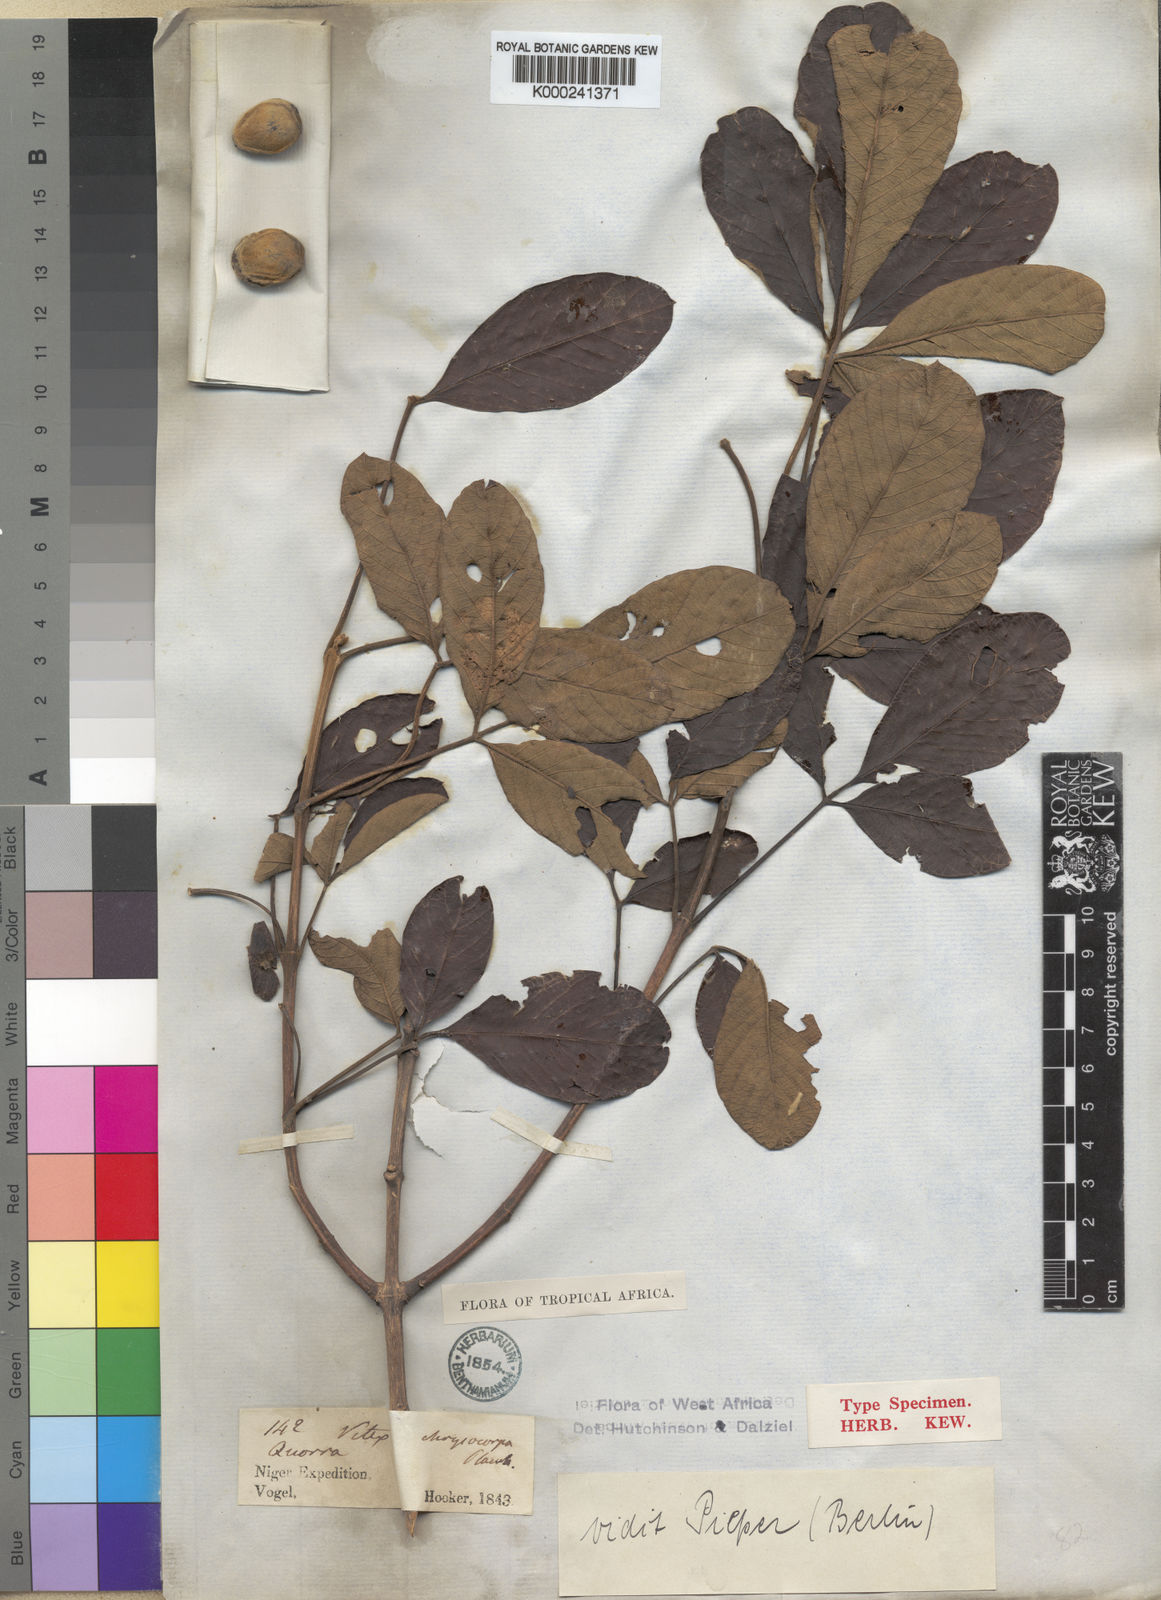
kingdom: Plantae
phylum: Tracheophyta
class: Magnoliopsida
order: Lamiales
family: Lamiaceae
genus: Vitex
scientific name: Vitex
